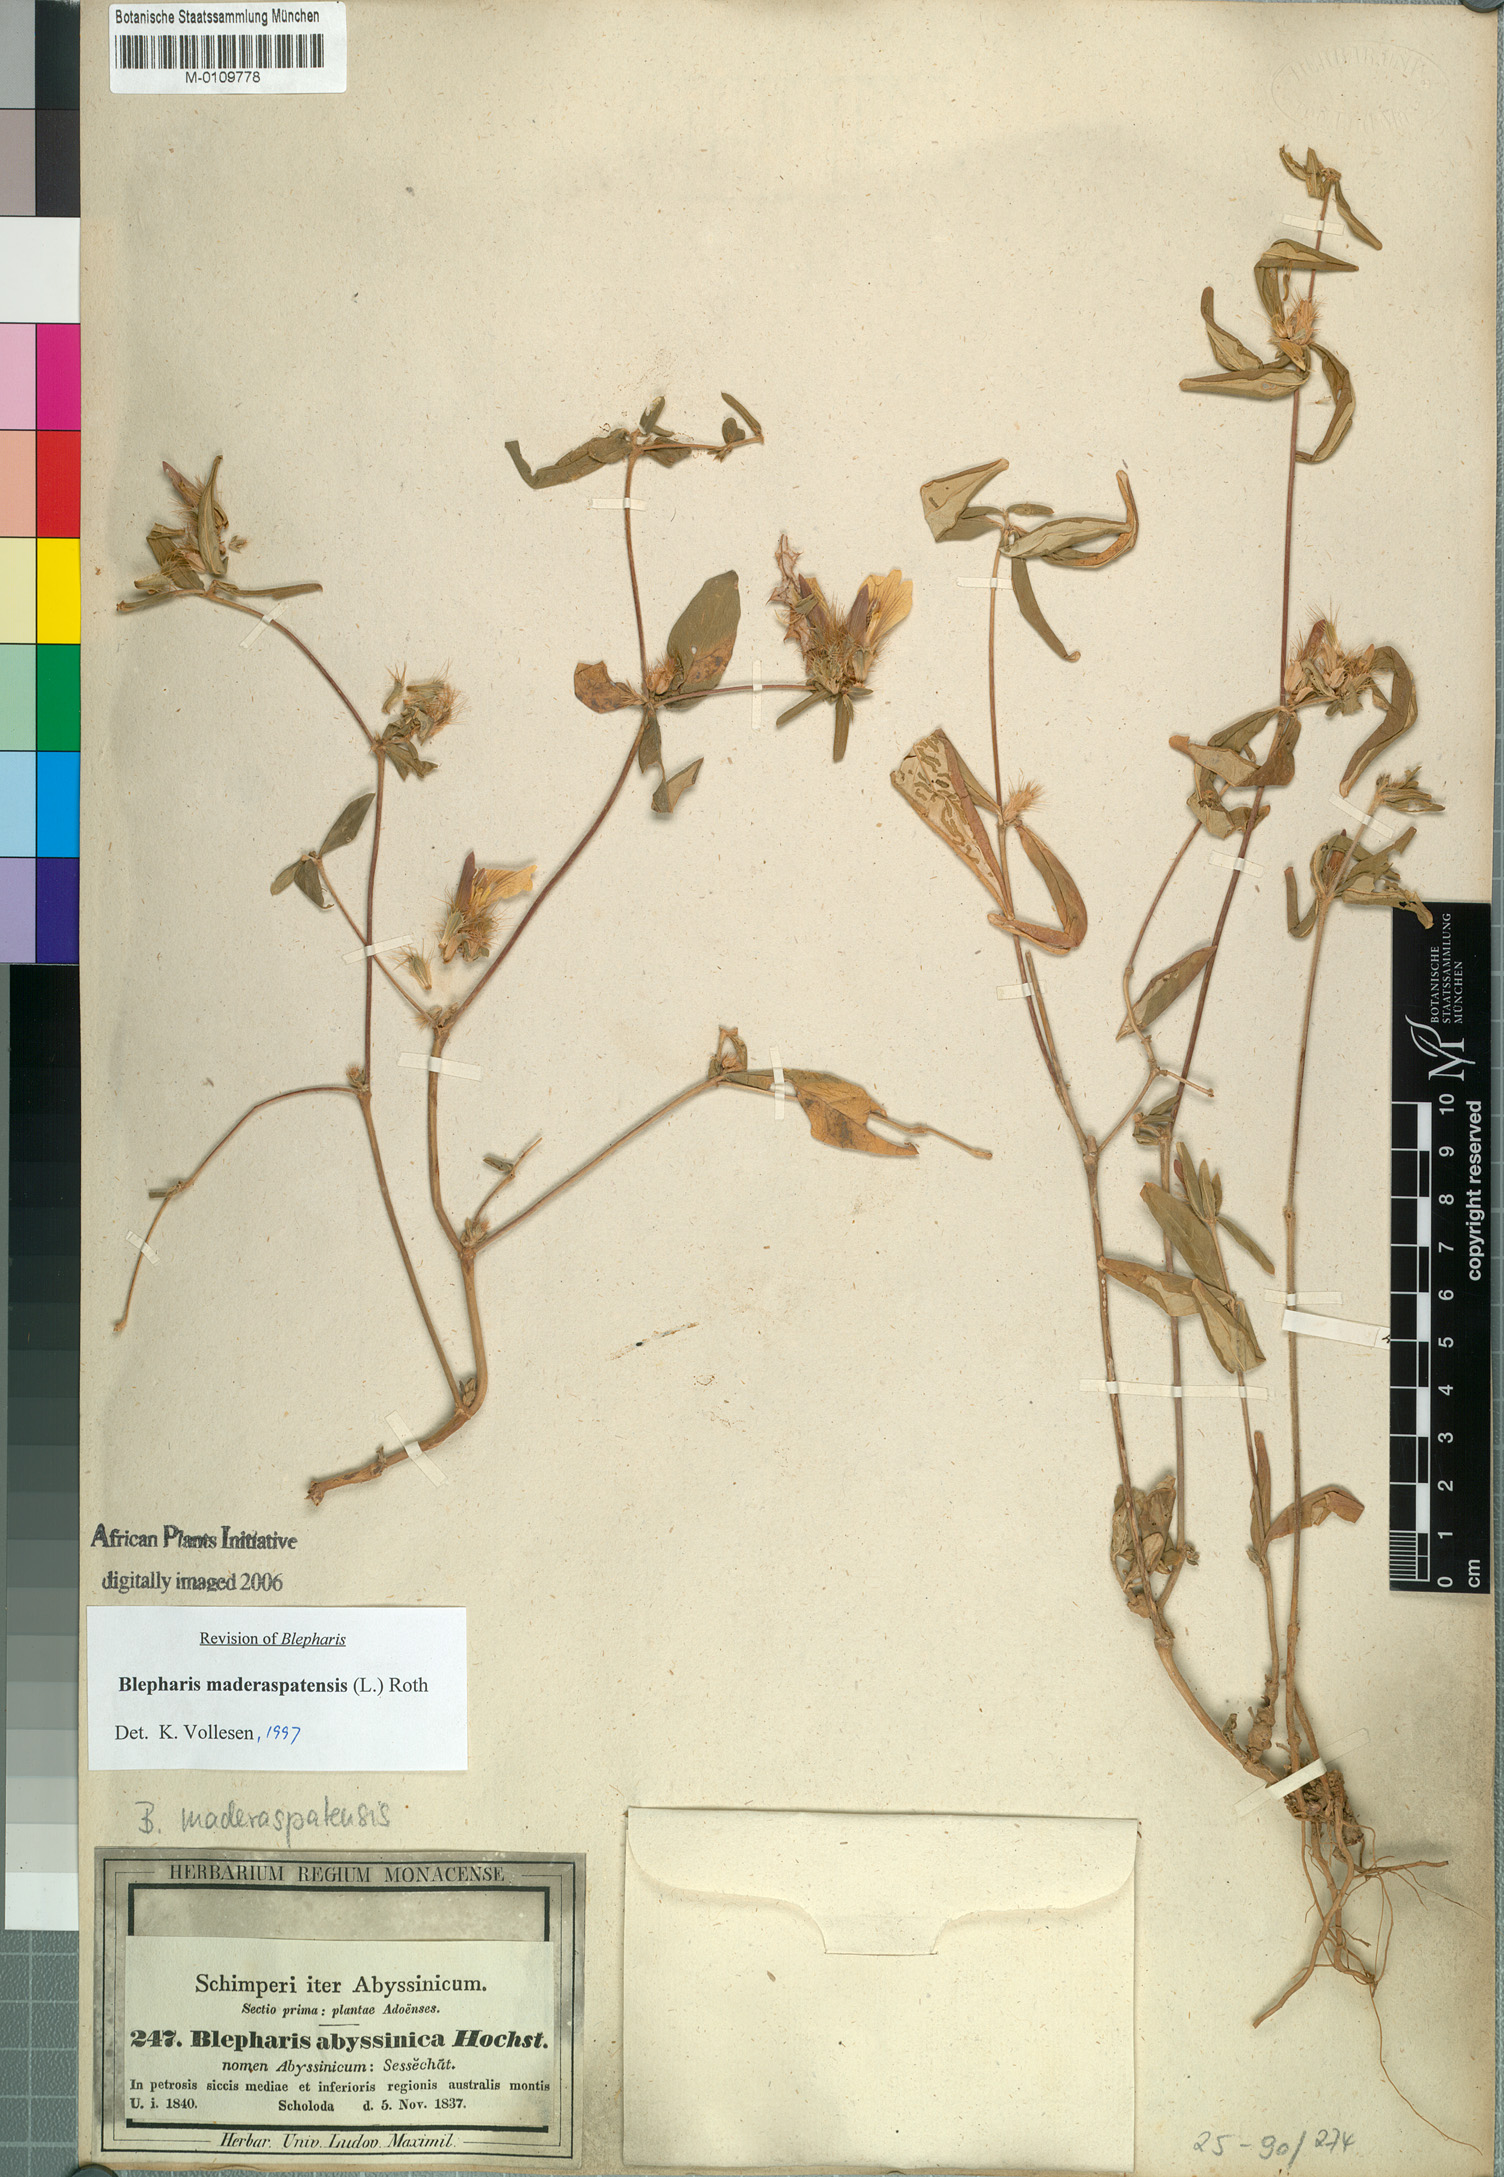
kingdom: Plantae
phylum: Tracheophyta
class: Magnoliopsida
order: Lamiales
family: Acanthaceae
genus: Blepharis
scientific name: Blepharis maderaspatensis
